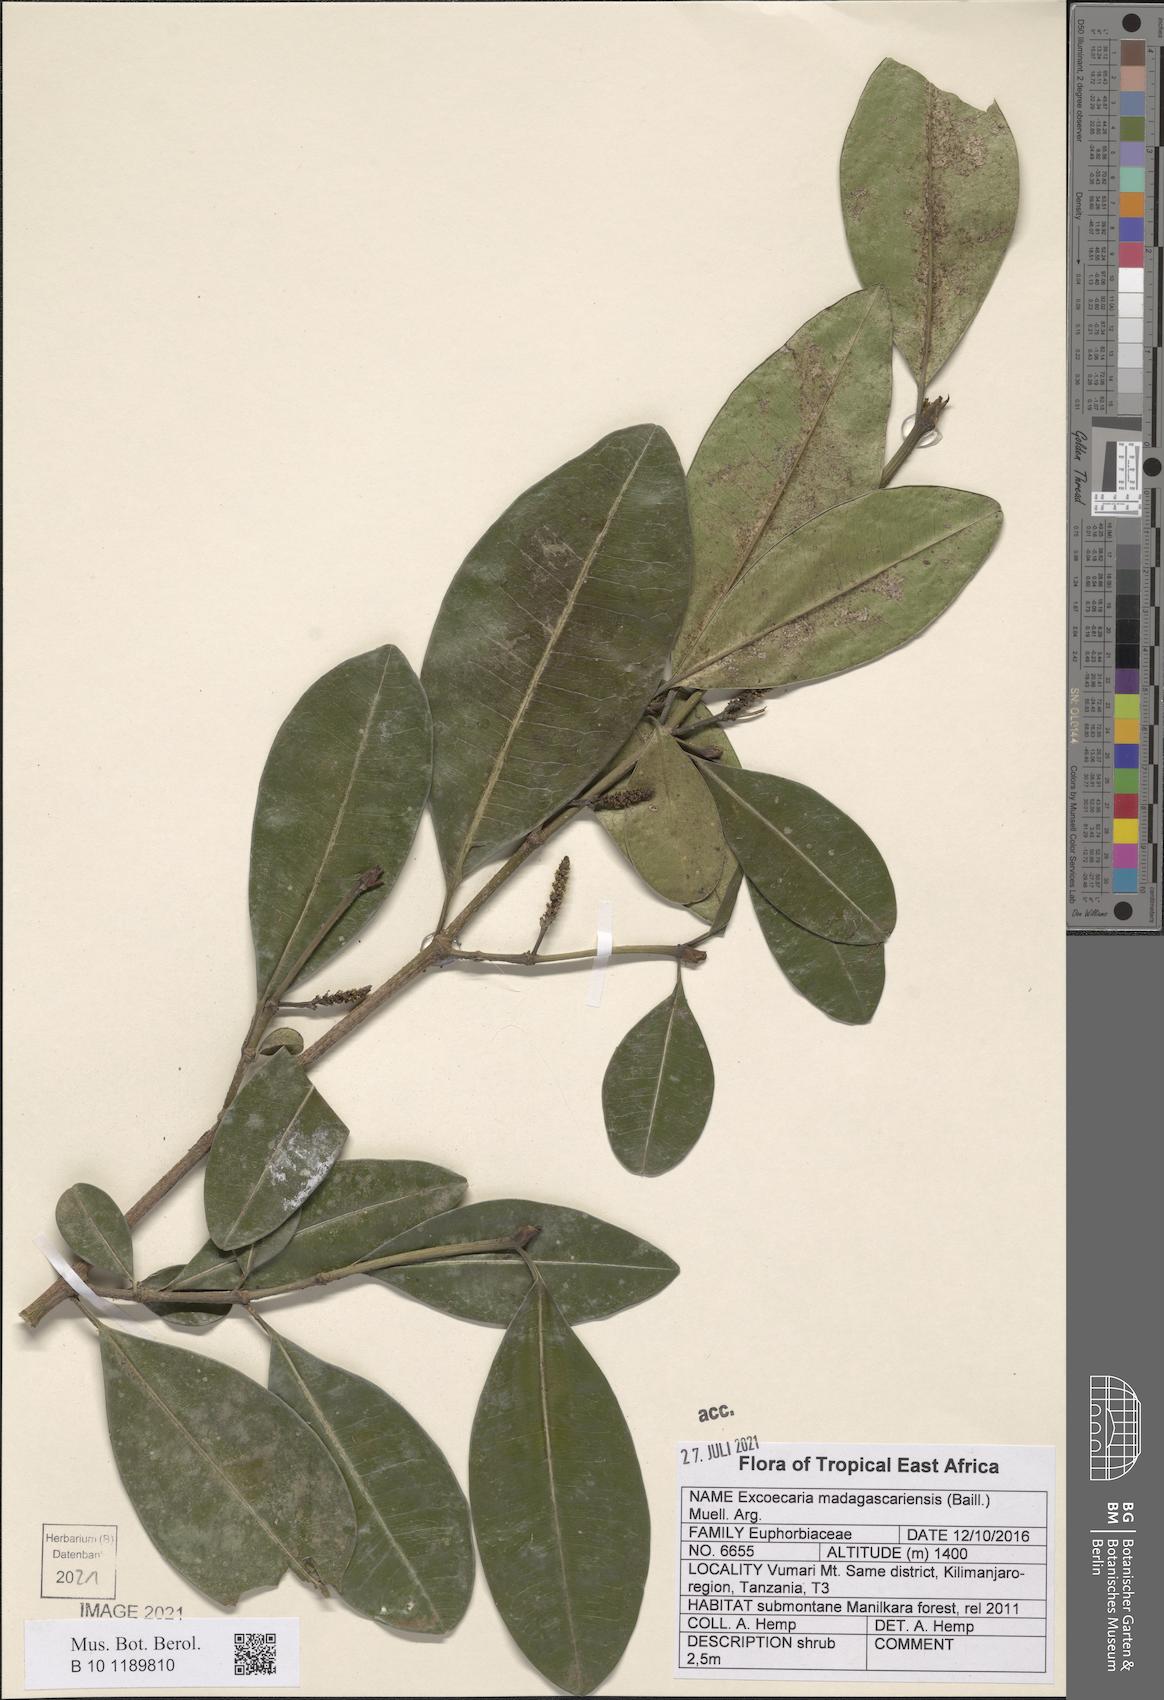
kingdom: Plantae
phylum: Tracheophyta
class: Magnoliopsida
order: Malpighiales
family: Euphorbiaceae
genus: Excoecaria
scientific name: Excoecaria madagascariensis
